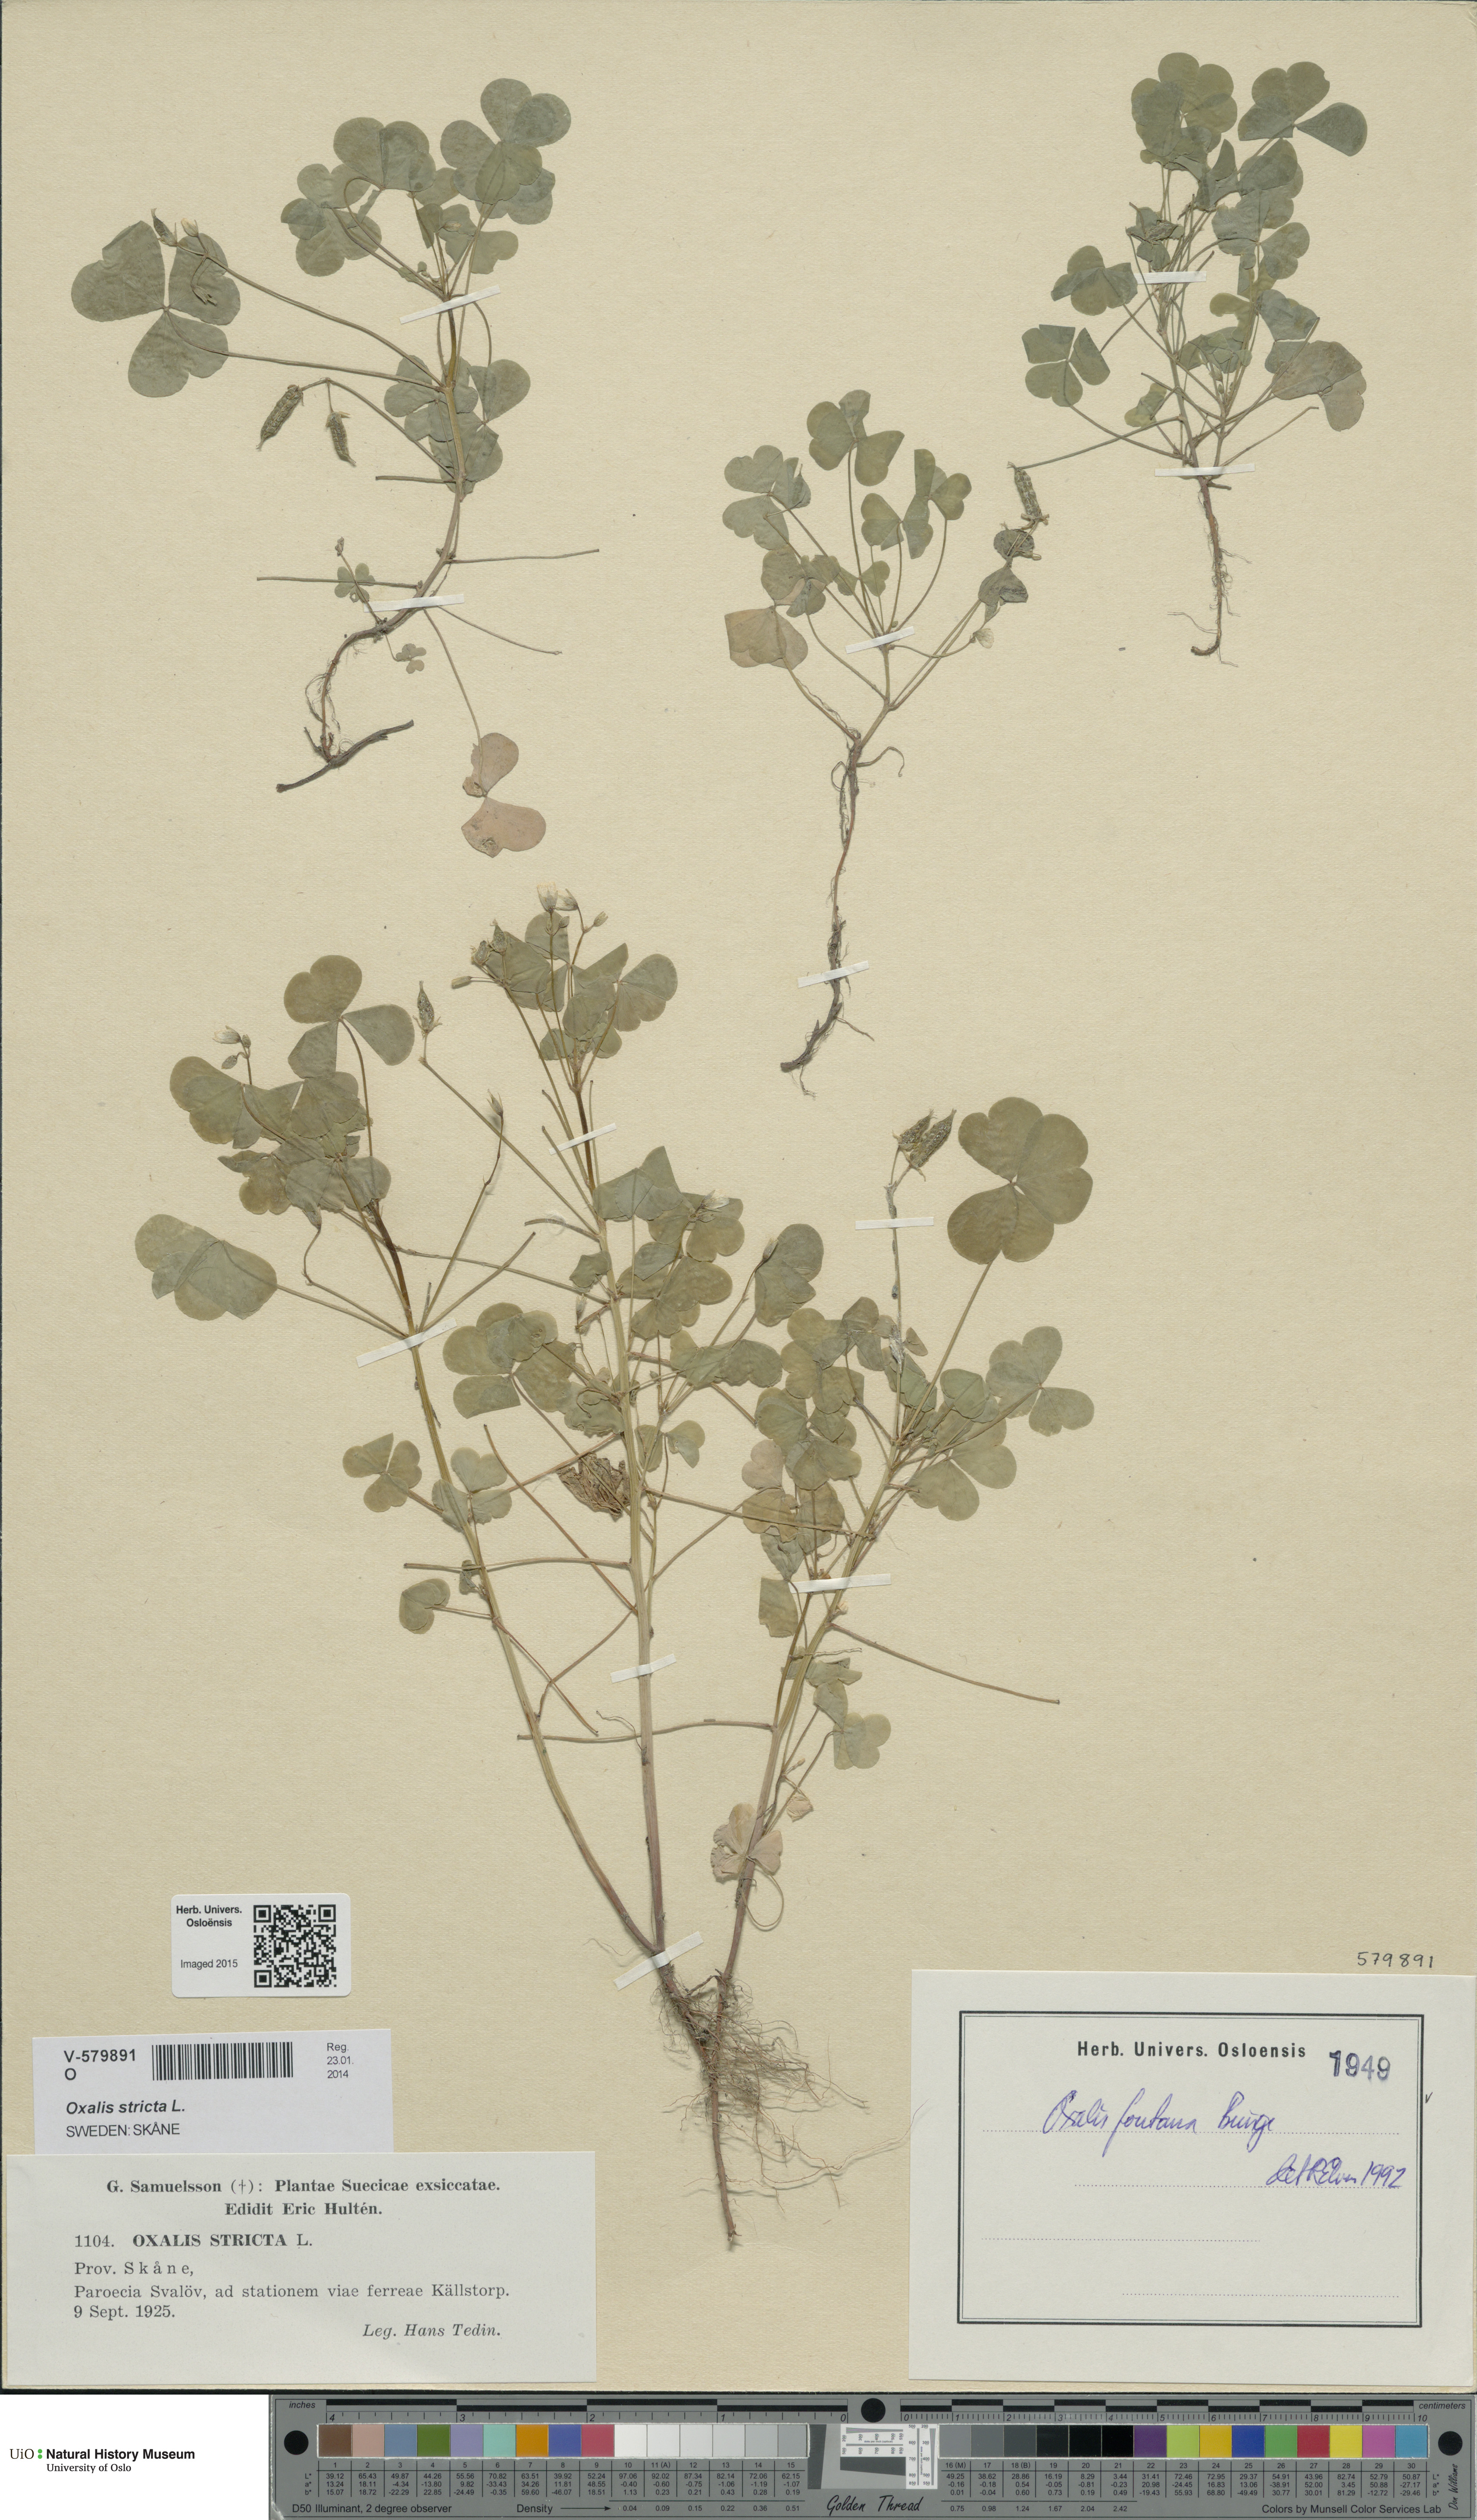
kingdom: Plantae
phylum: Tracheophyta
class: Magnoliopsida
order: Oxalidales
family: Oxalidaceae
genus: Oxalis
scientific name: Oxalis stricta
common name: Upright yellow-sorrel
